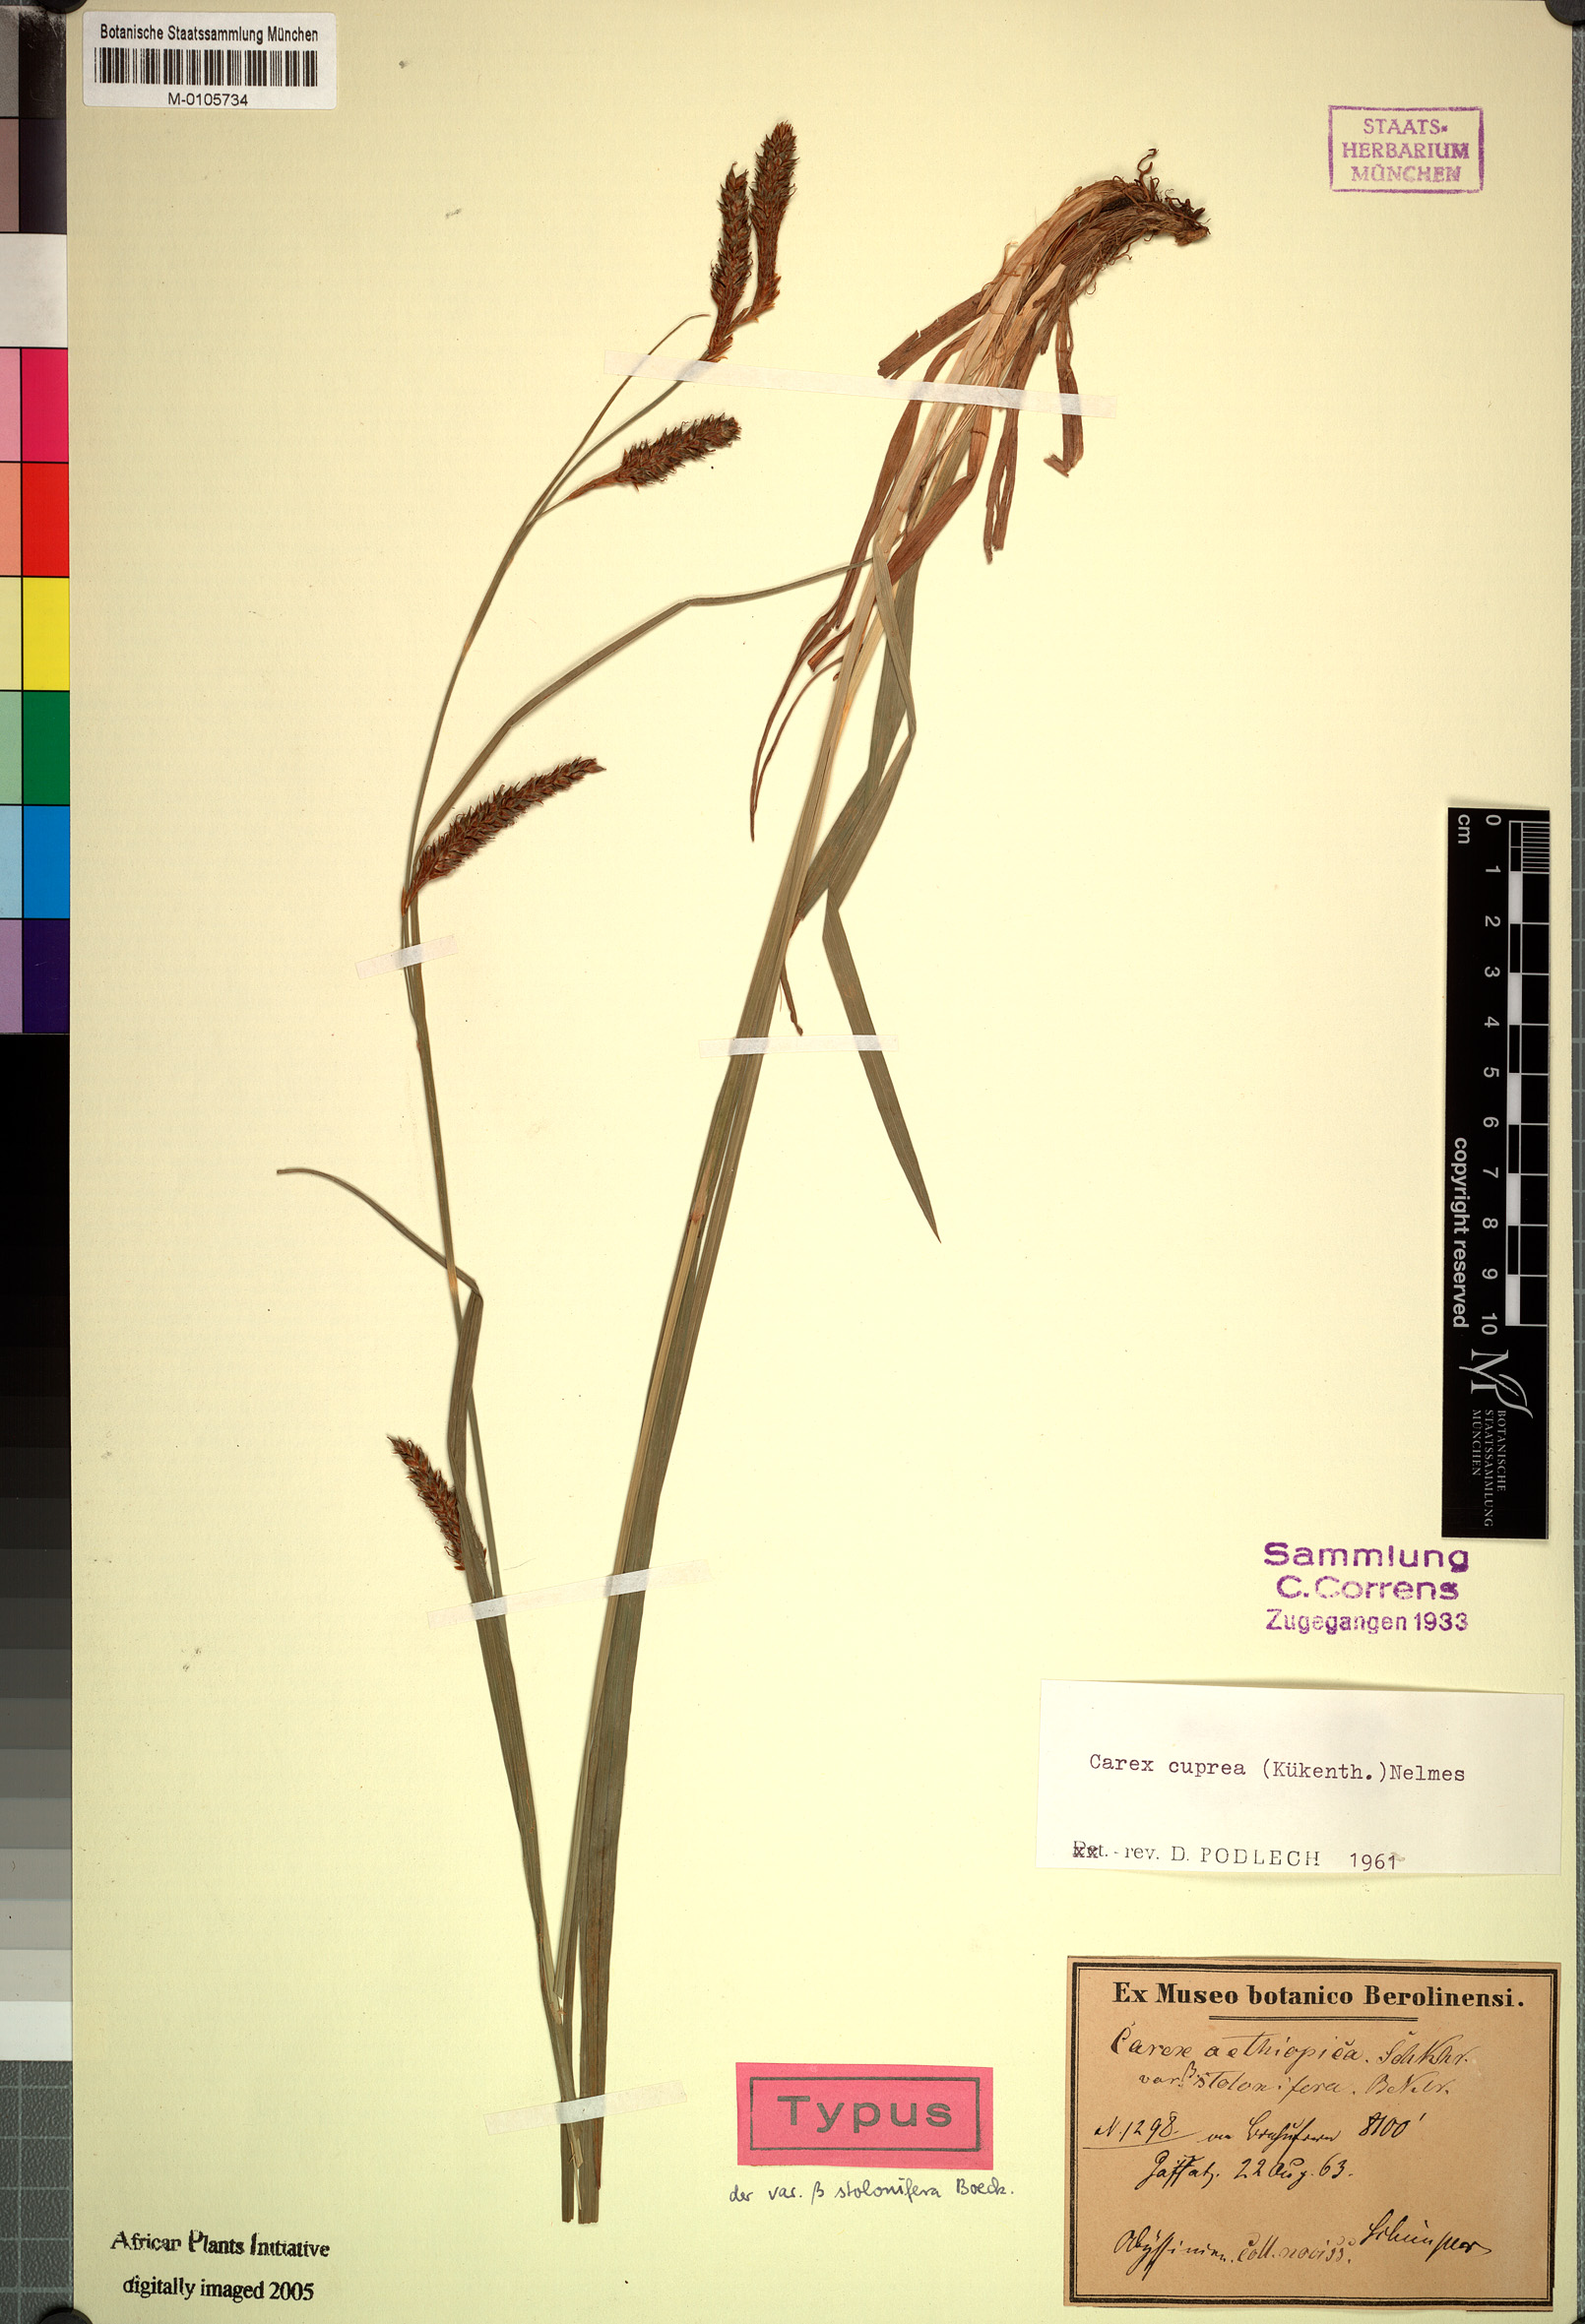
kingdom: Plantae
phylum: Tracheophyta
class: Liliopsida
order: Poales
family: Cyperaceae
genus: Carex
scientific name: Carex petitiana
